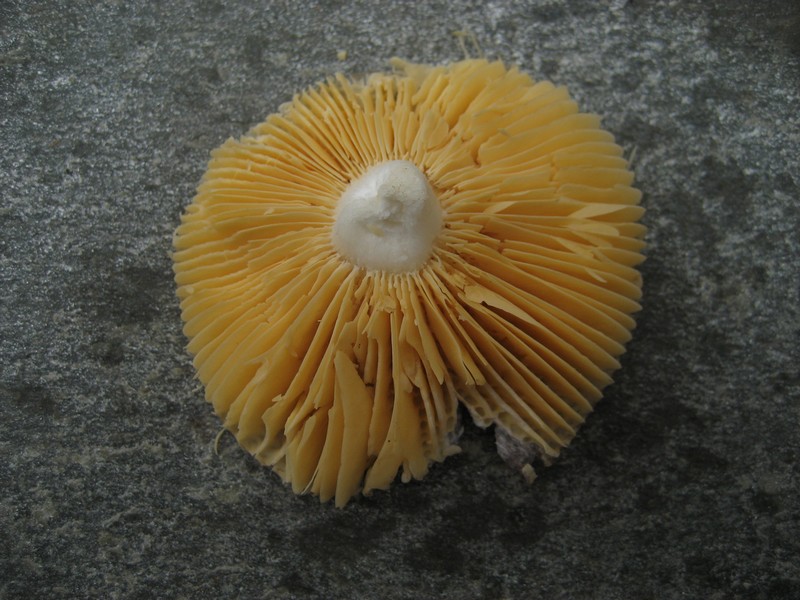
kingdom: Fungi
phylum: Basidiomycota
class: Agaricomycetes
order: Russulales
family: Russulaceae
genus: Russula
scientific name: Russula cessans
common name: fyrre-skørhat
